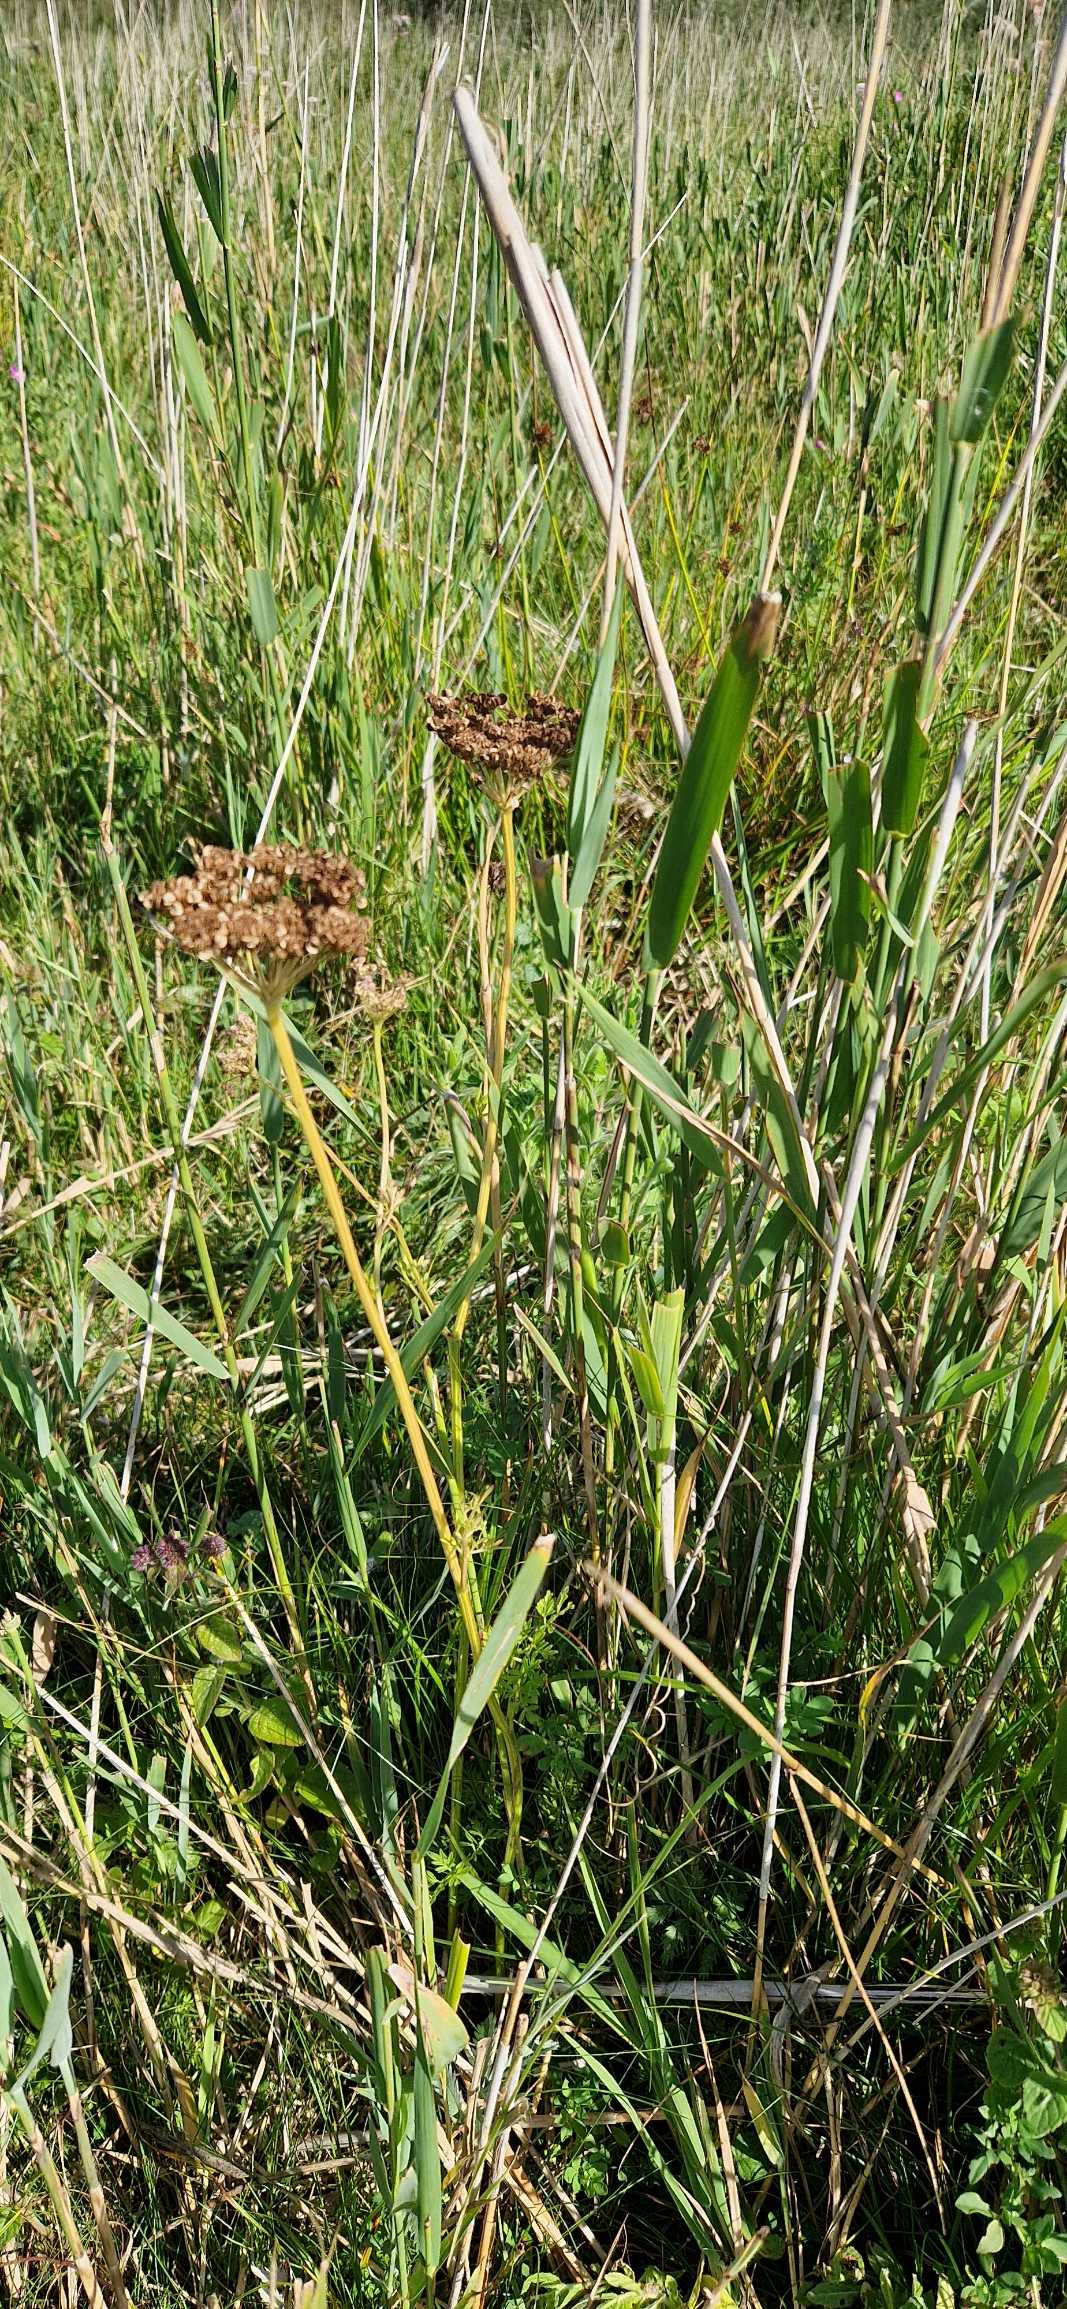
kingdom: Plantae
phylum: Tracheophyta
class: Magnoliopsida
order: Apiales
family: Apiaceae
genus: Selinum
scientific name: Selinum carvifolia
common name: Seline
